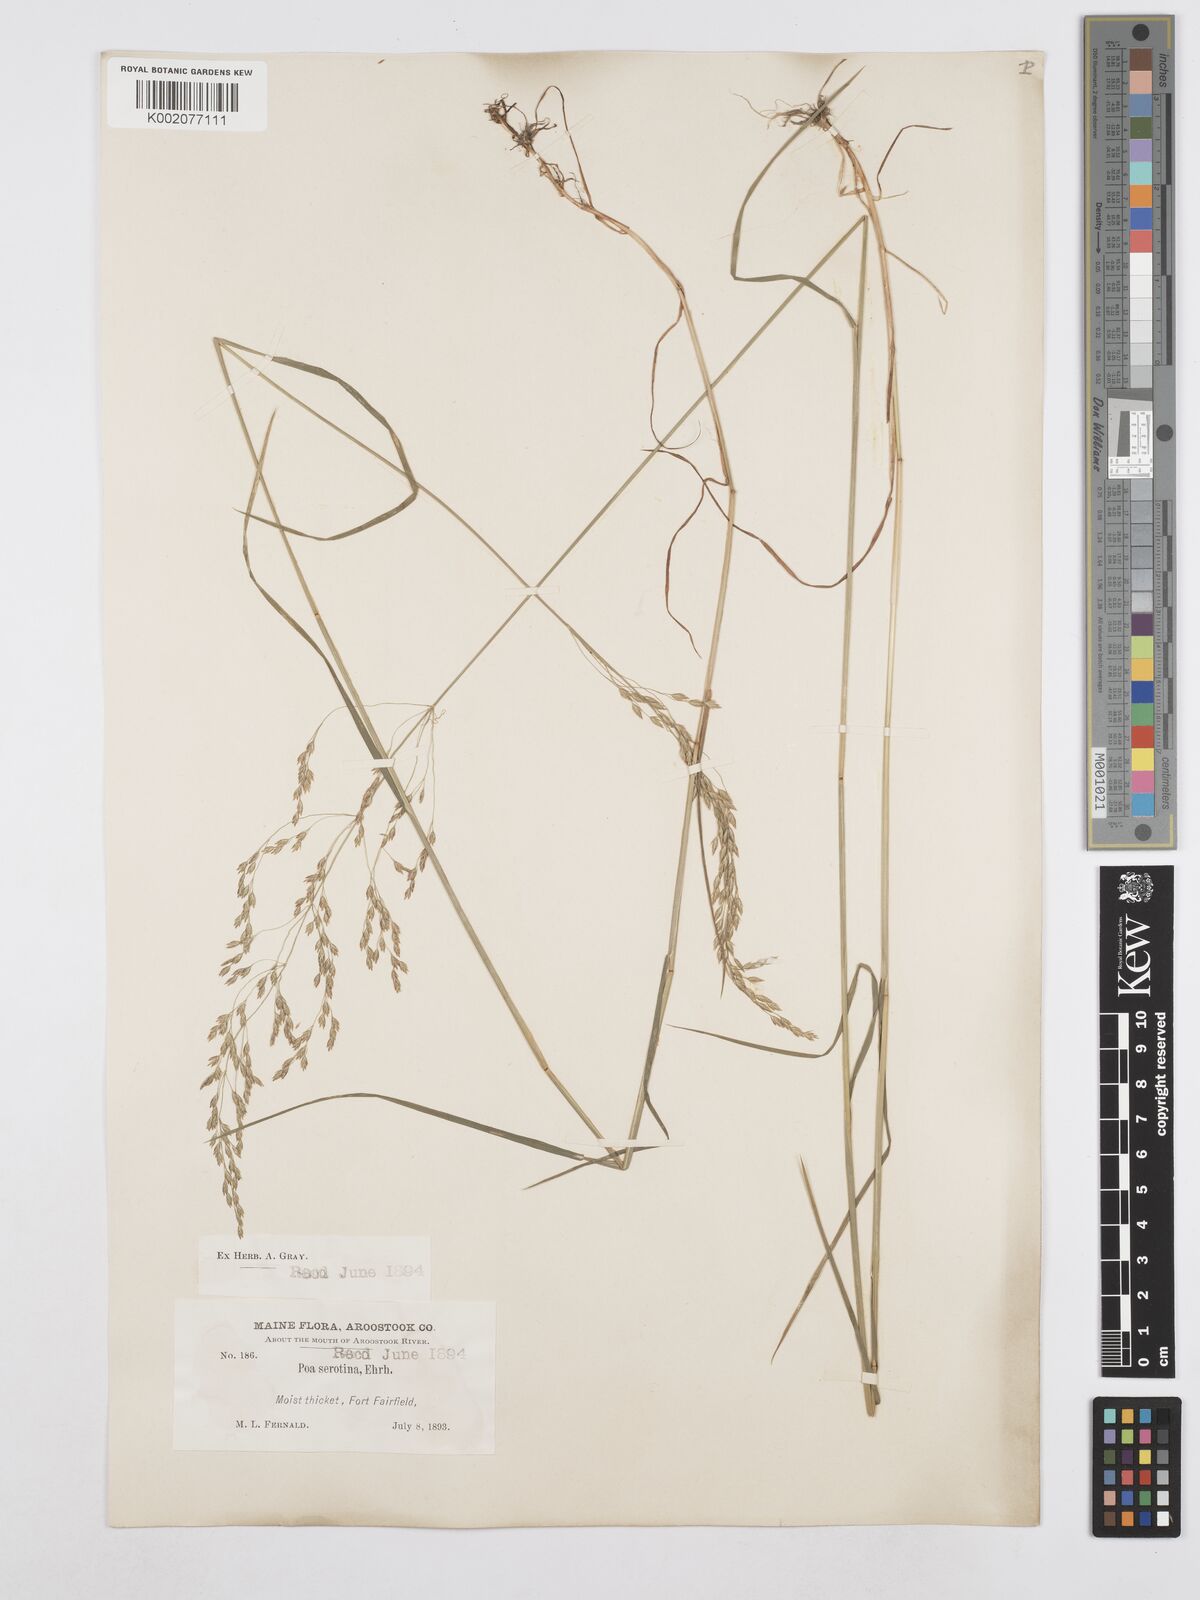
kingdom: Plantae
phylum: Tracheophyta
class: Liliopsida
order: Poales
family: Poaceae
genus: Poa
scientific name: Poa palustris
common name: Swamp meadow-grass
